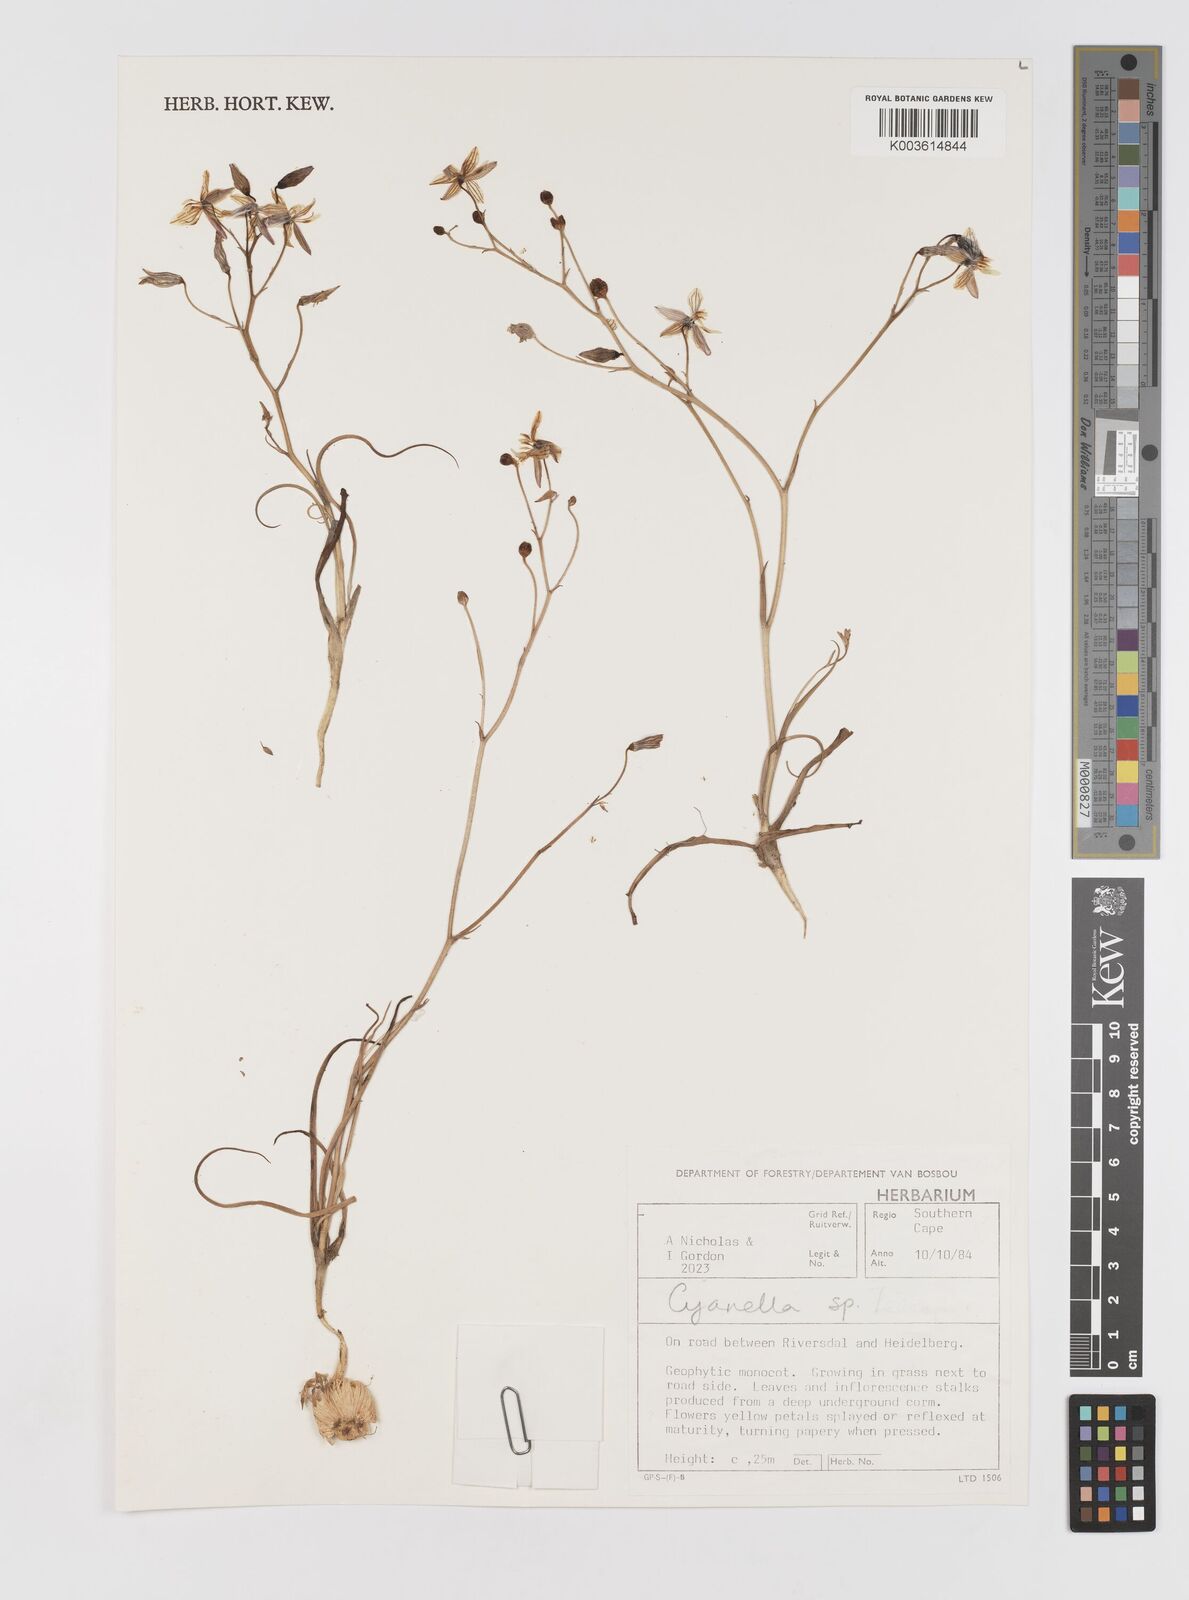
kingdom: Plantae
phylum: Tracheophyta
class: Liliopsida
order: Asparagales
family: Tecophilaeaceae
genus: Cyanella
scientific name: Cyanella
